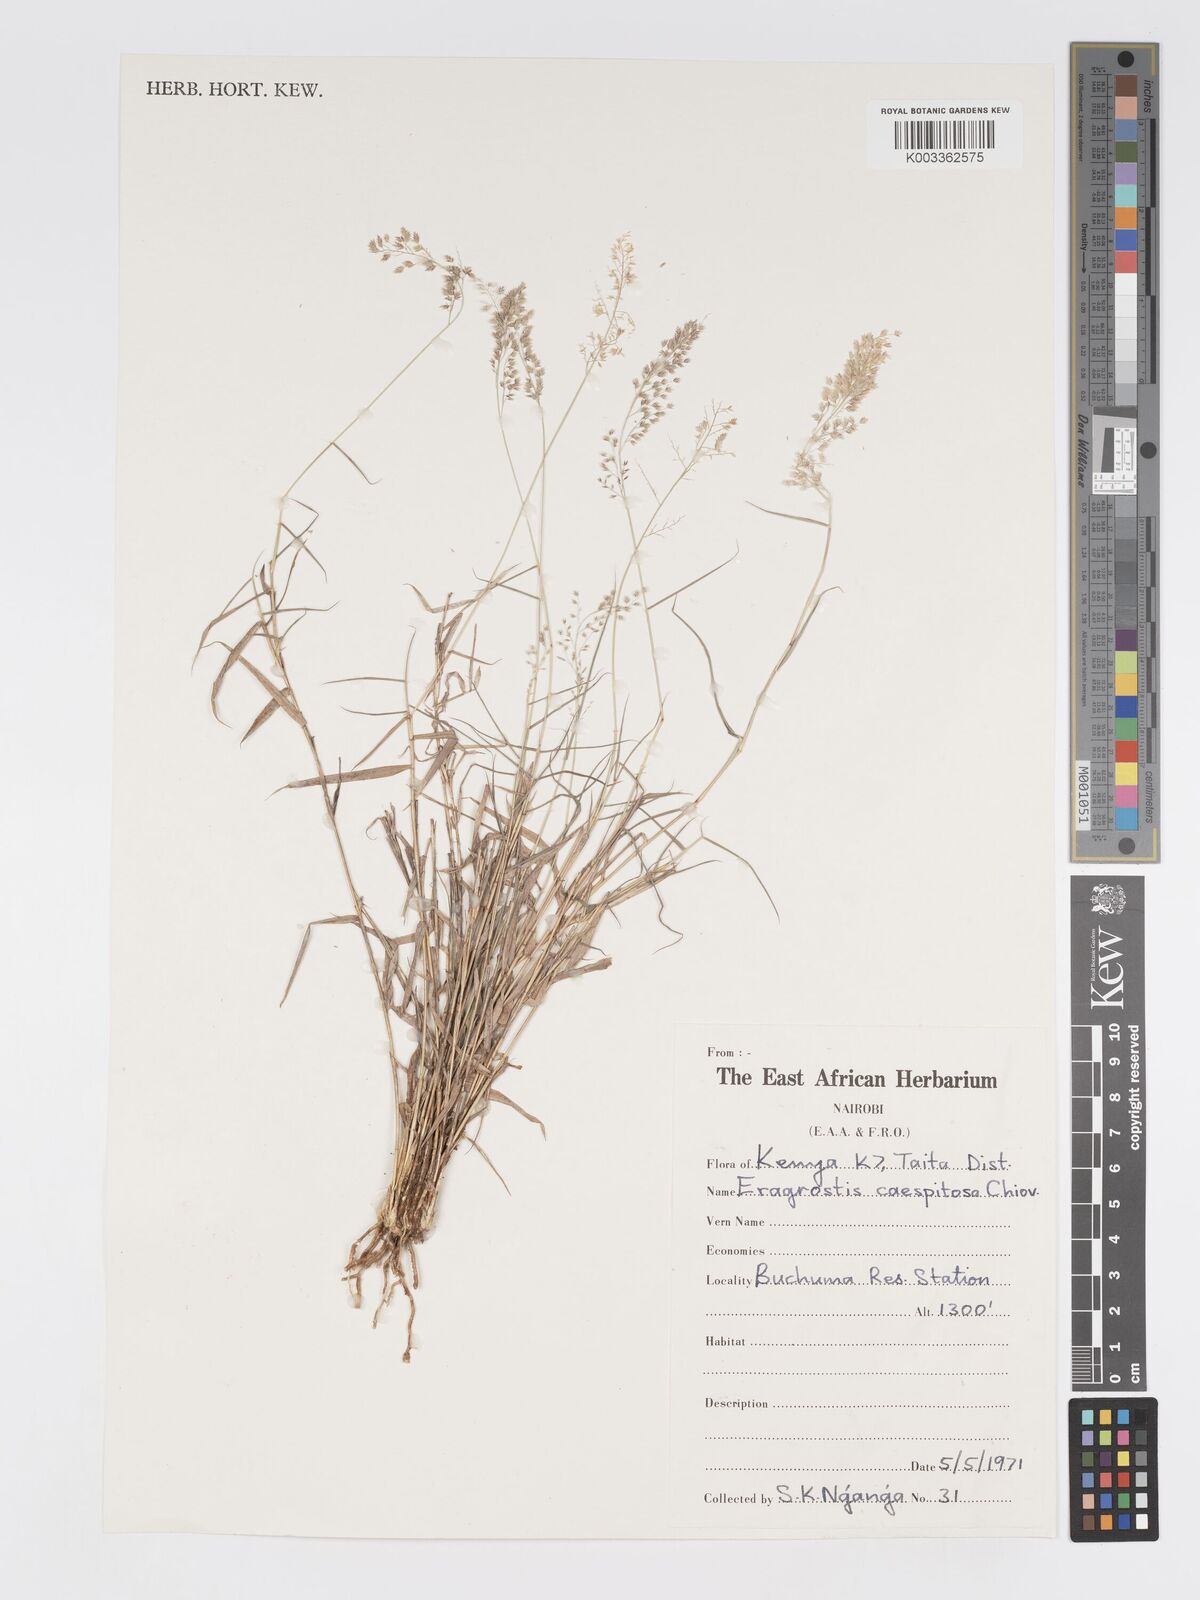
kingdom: Plantae
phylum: Tracheophyta
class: Liliopsida
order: Poales
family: Poaceae
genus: Eragrostis
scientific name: Eragrostis caespitosa
